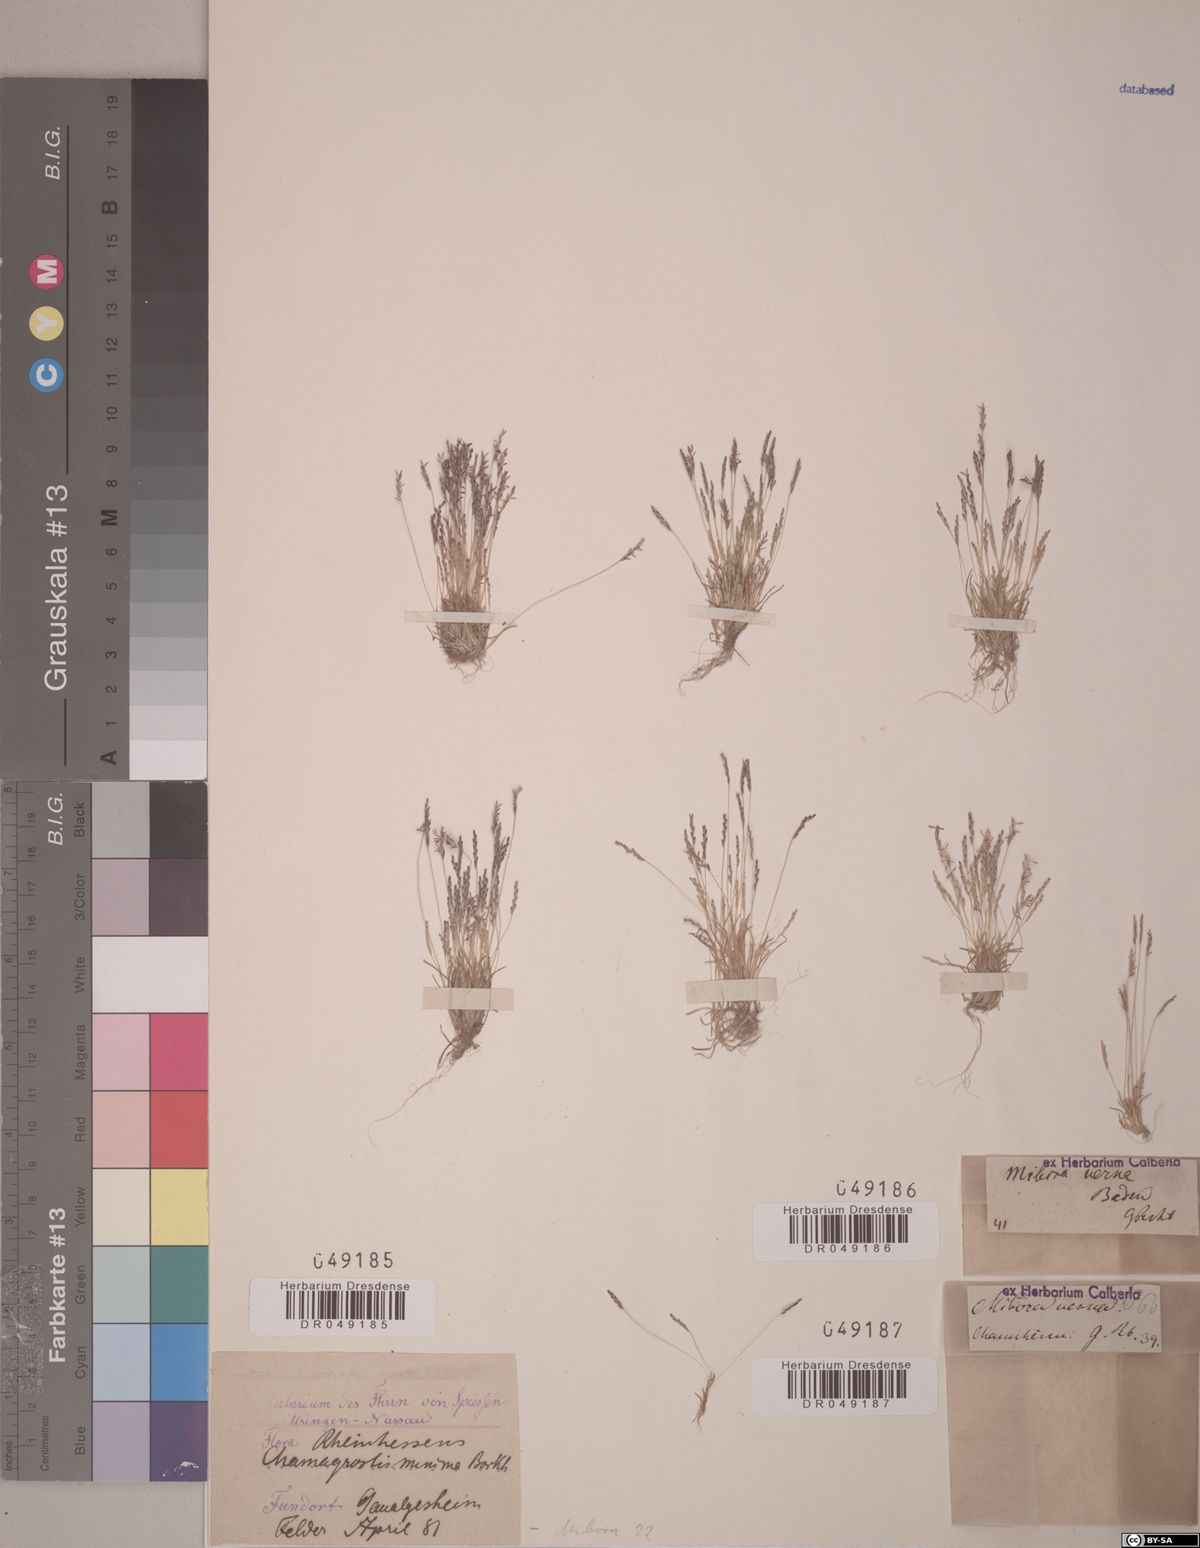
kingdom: Plantae
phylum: Tracheophyta
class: Liliopsida
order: Poales
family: Poaceae
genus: Mibora
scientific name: Mibora minima
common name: Early sand-grass
